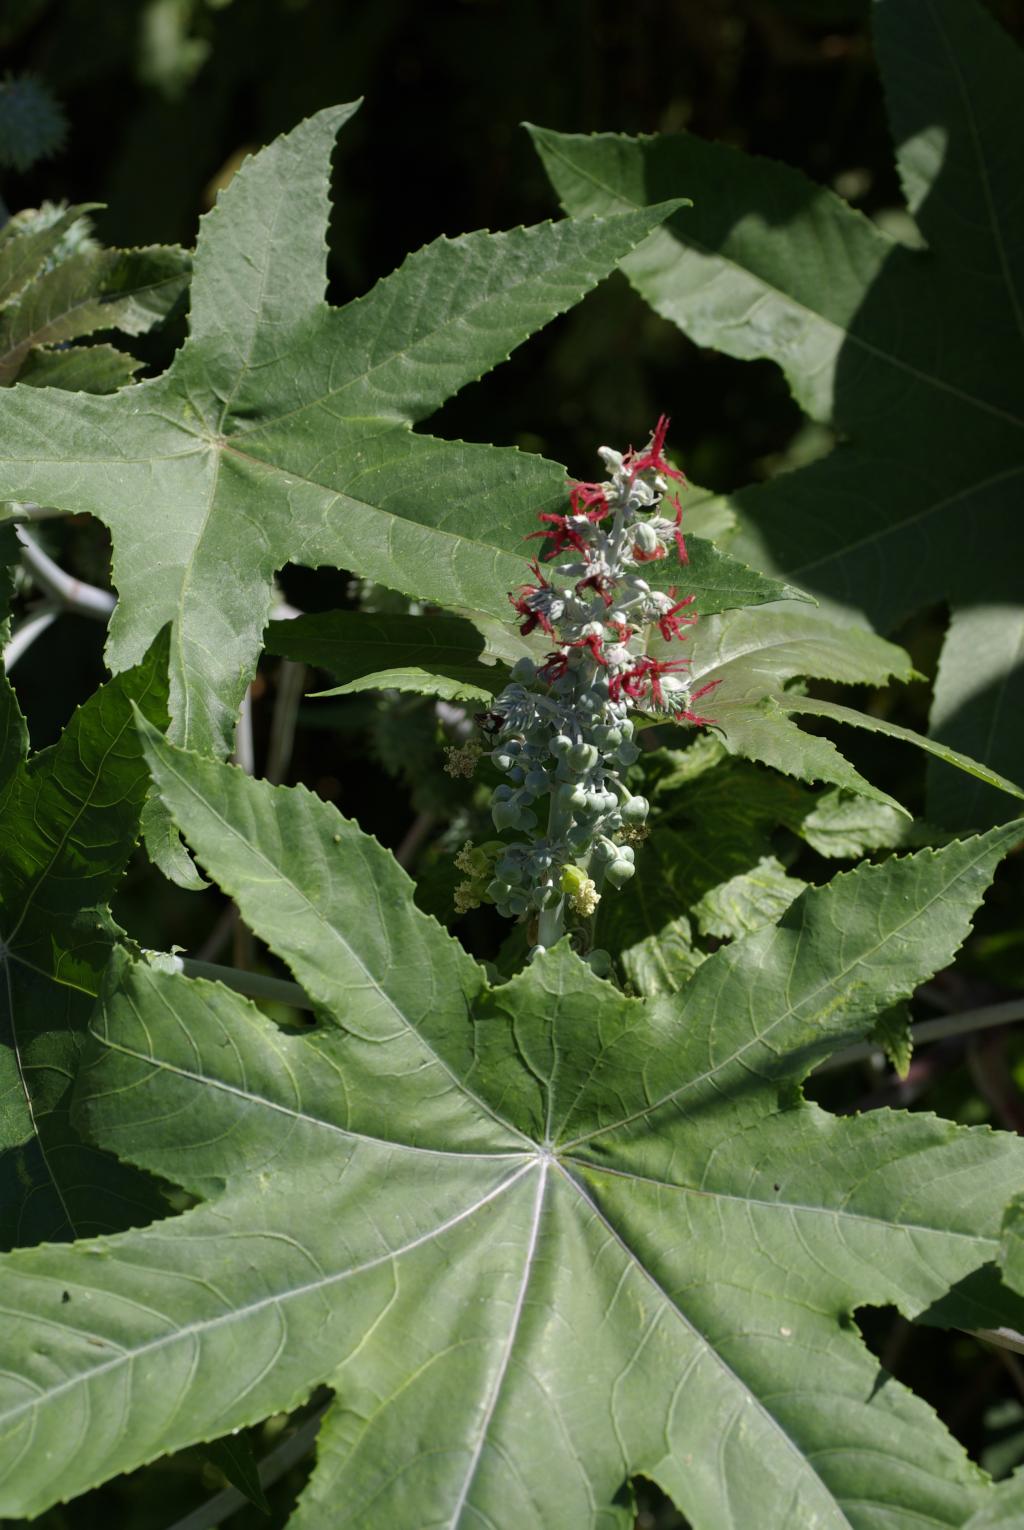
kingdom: Plantae
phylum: Tracheophyta
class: Magnoliopsida
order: Malpighiales
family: Euphorbiaceae
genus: Ricinus
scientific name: Ricinus communis
